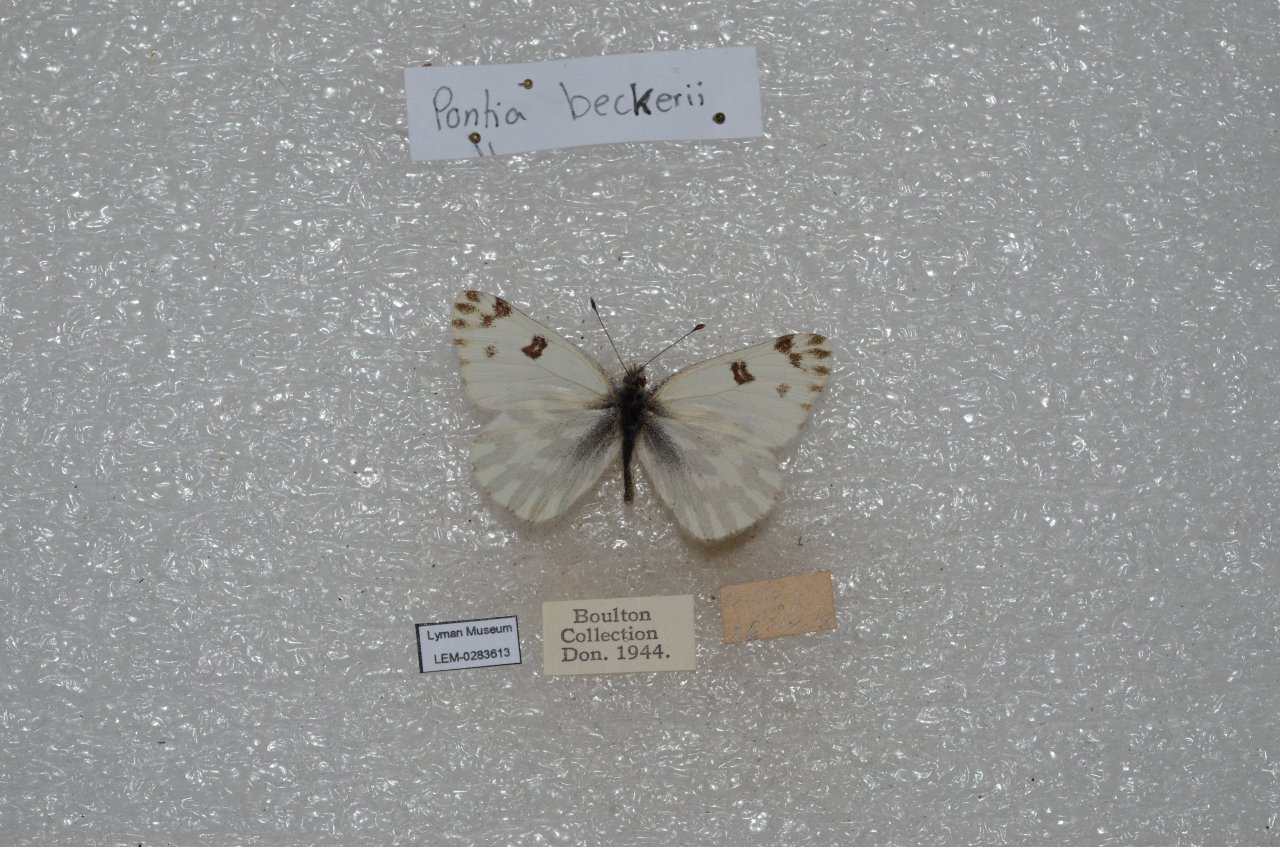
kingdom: Animalia
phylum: Arthropoda
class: Insecta
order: Lepidoptera
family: Pieridae
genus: Pontia
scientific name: Pontia beckerii
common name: Becker's White
